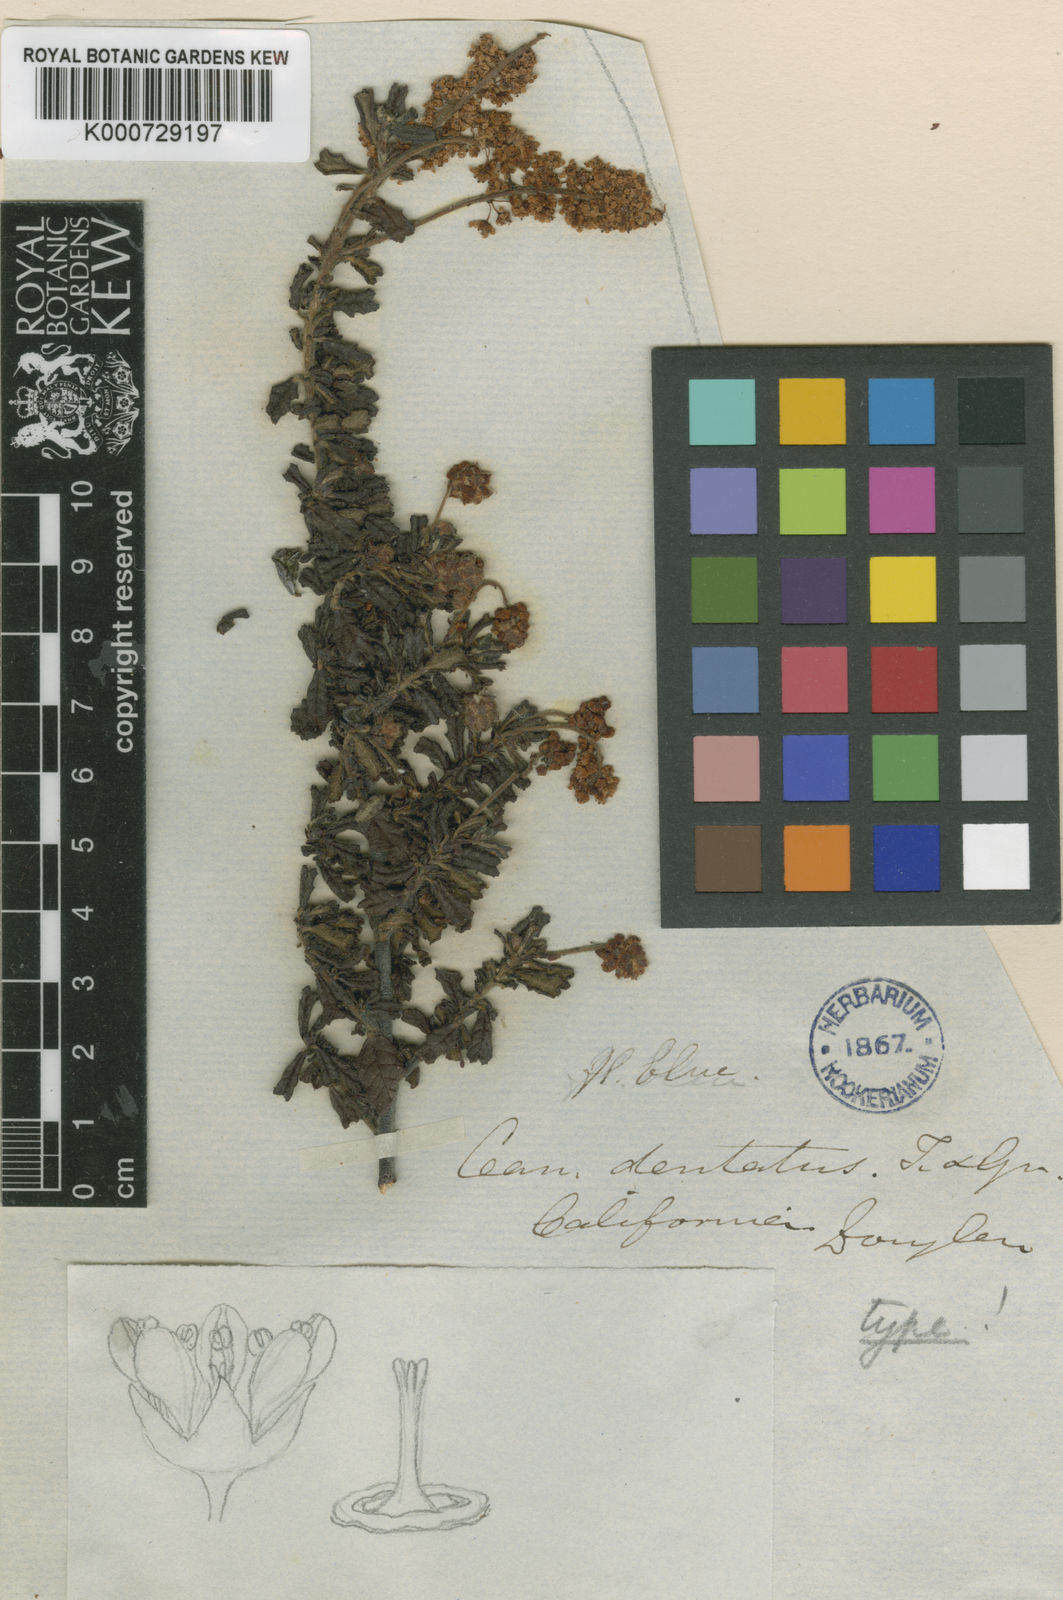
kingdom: Plantae
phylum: Tracheophyta
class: Magnoliopsida
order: Rosales
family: Rhamnaceae
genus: Ceanothus
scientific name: Ceanothus dentatus
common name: Crop-leaf ceanothus
